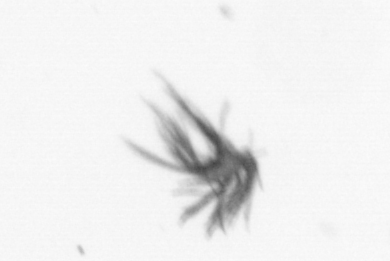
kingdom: Animalia
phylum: Arthropoda
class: Maxillopoda
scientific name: Maxillopoda
